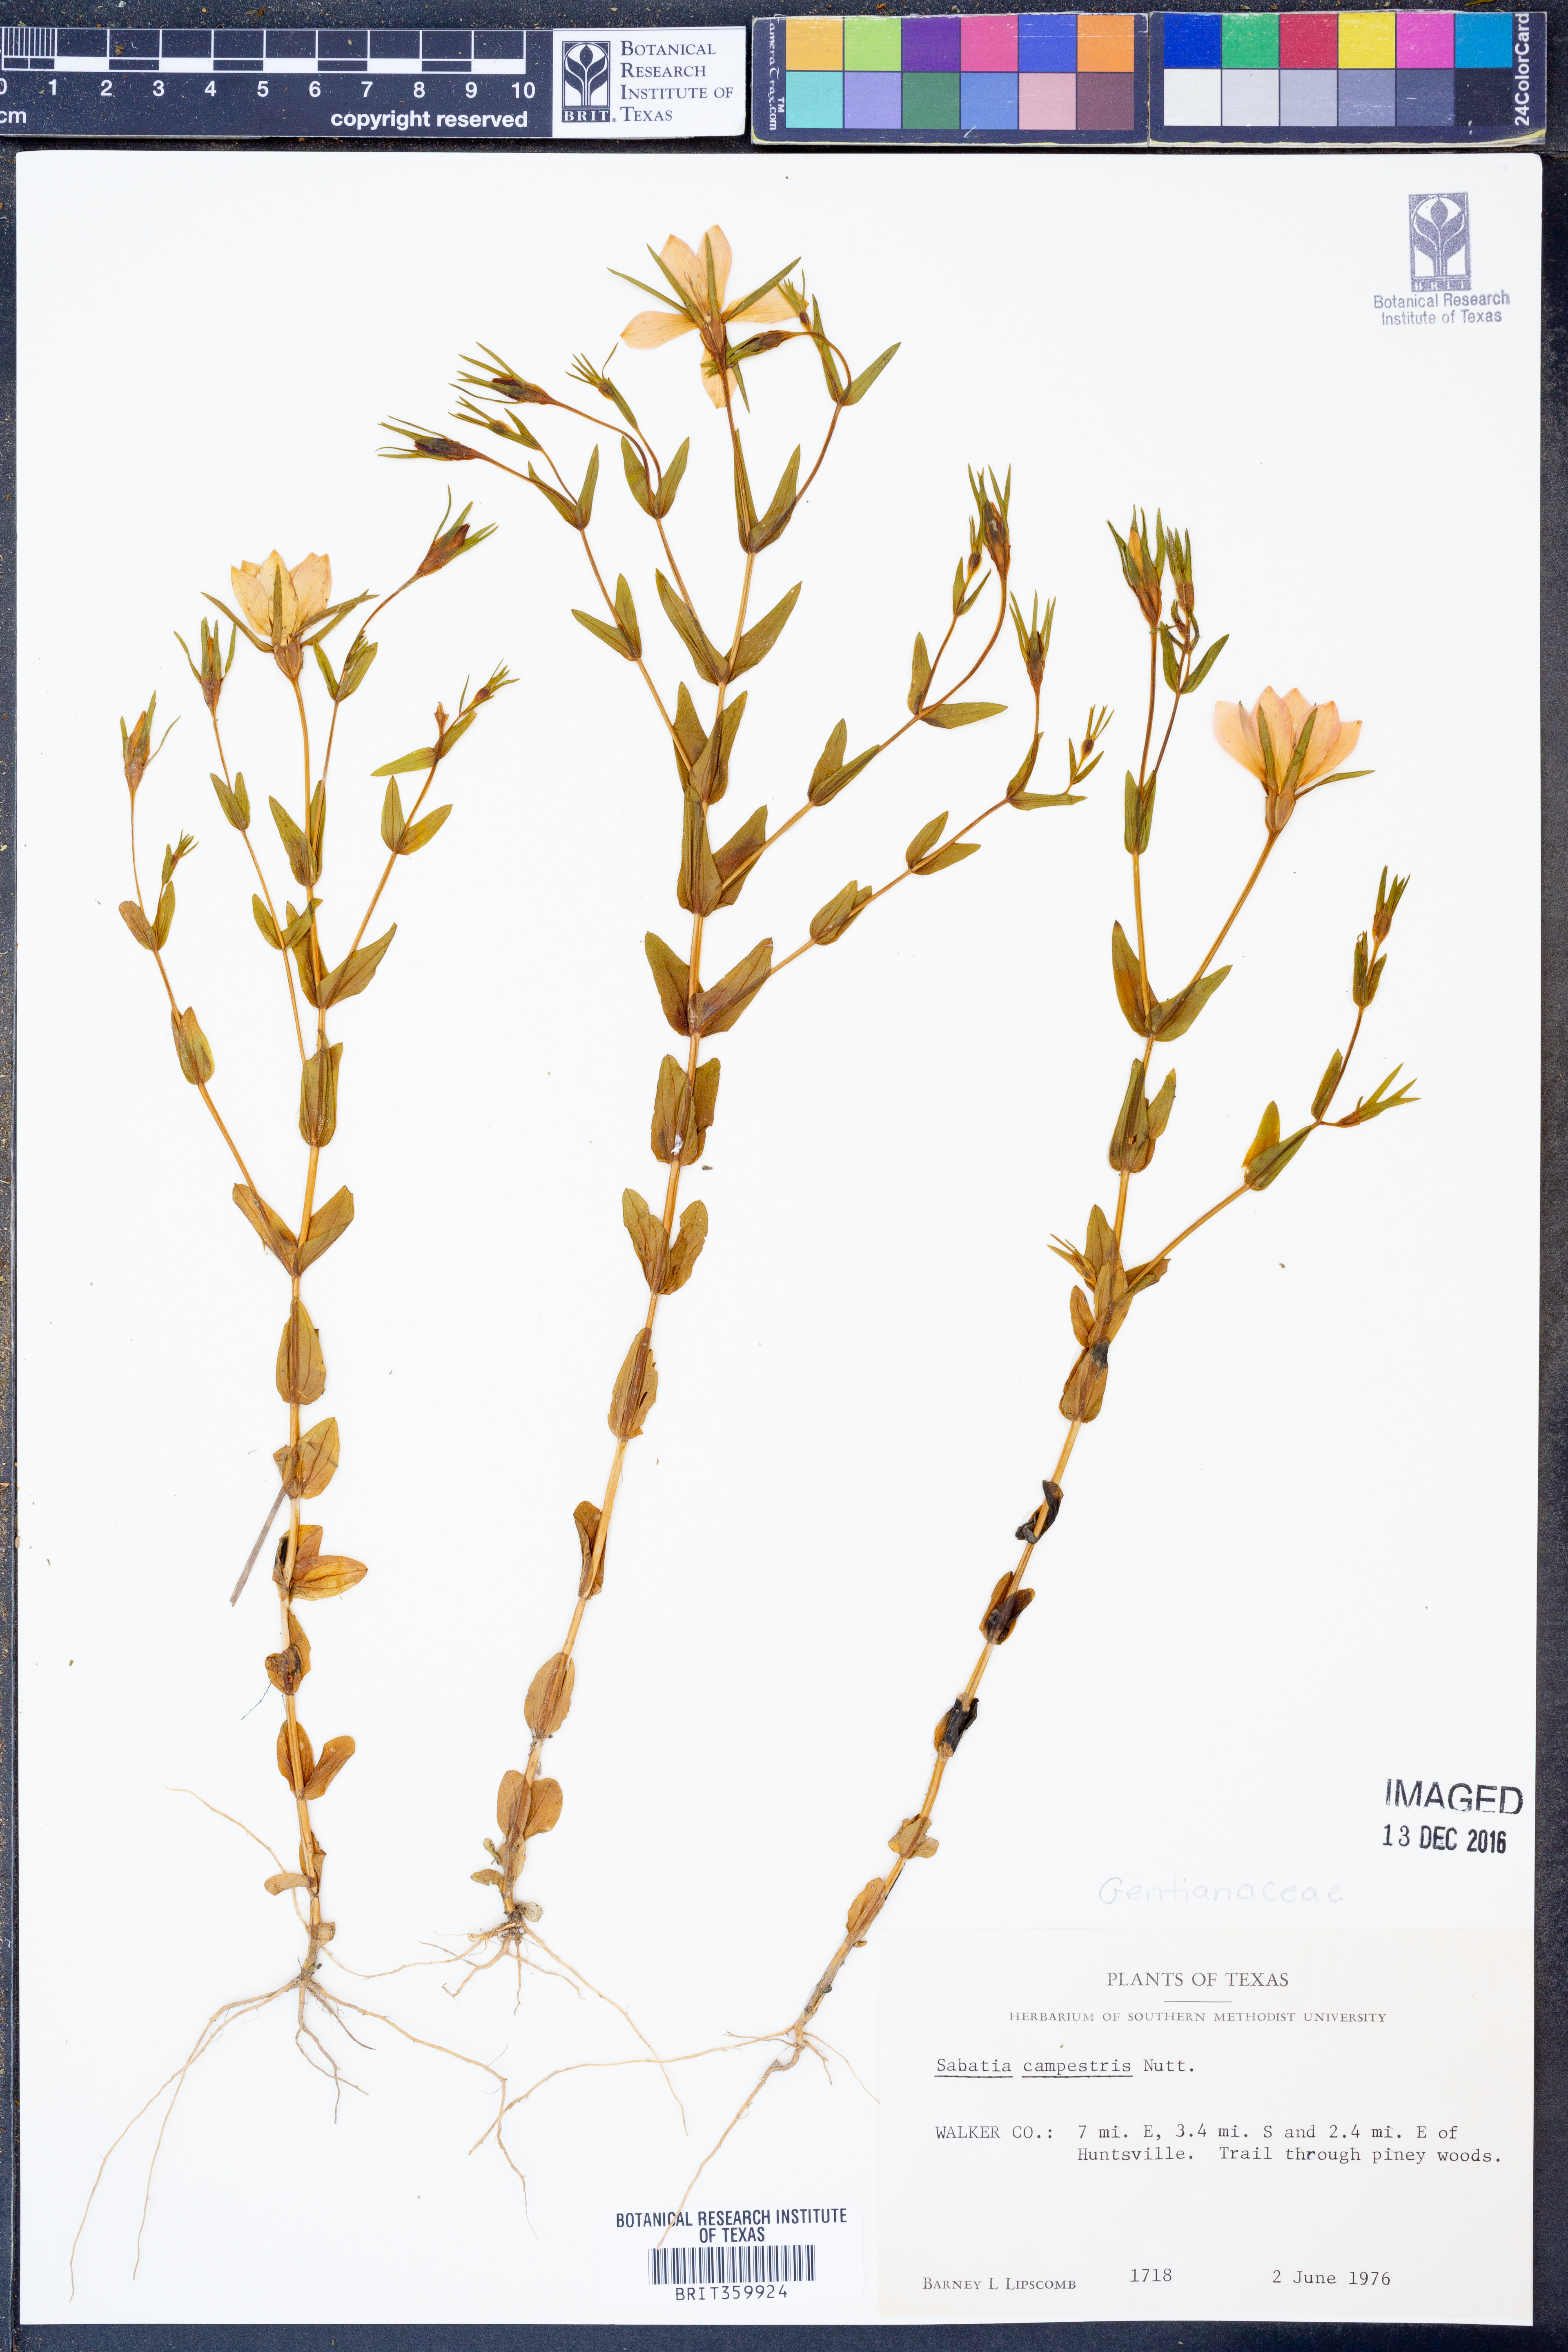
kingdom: Plantae
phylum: Tracheophyta
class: Magnoliopsida
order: Gentianales
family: Gentianaceae
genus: Sabatia
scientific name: Sabatia campestris
